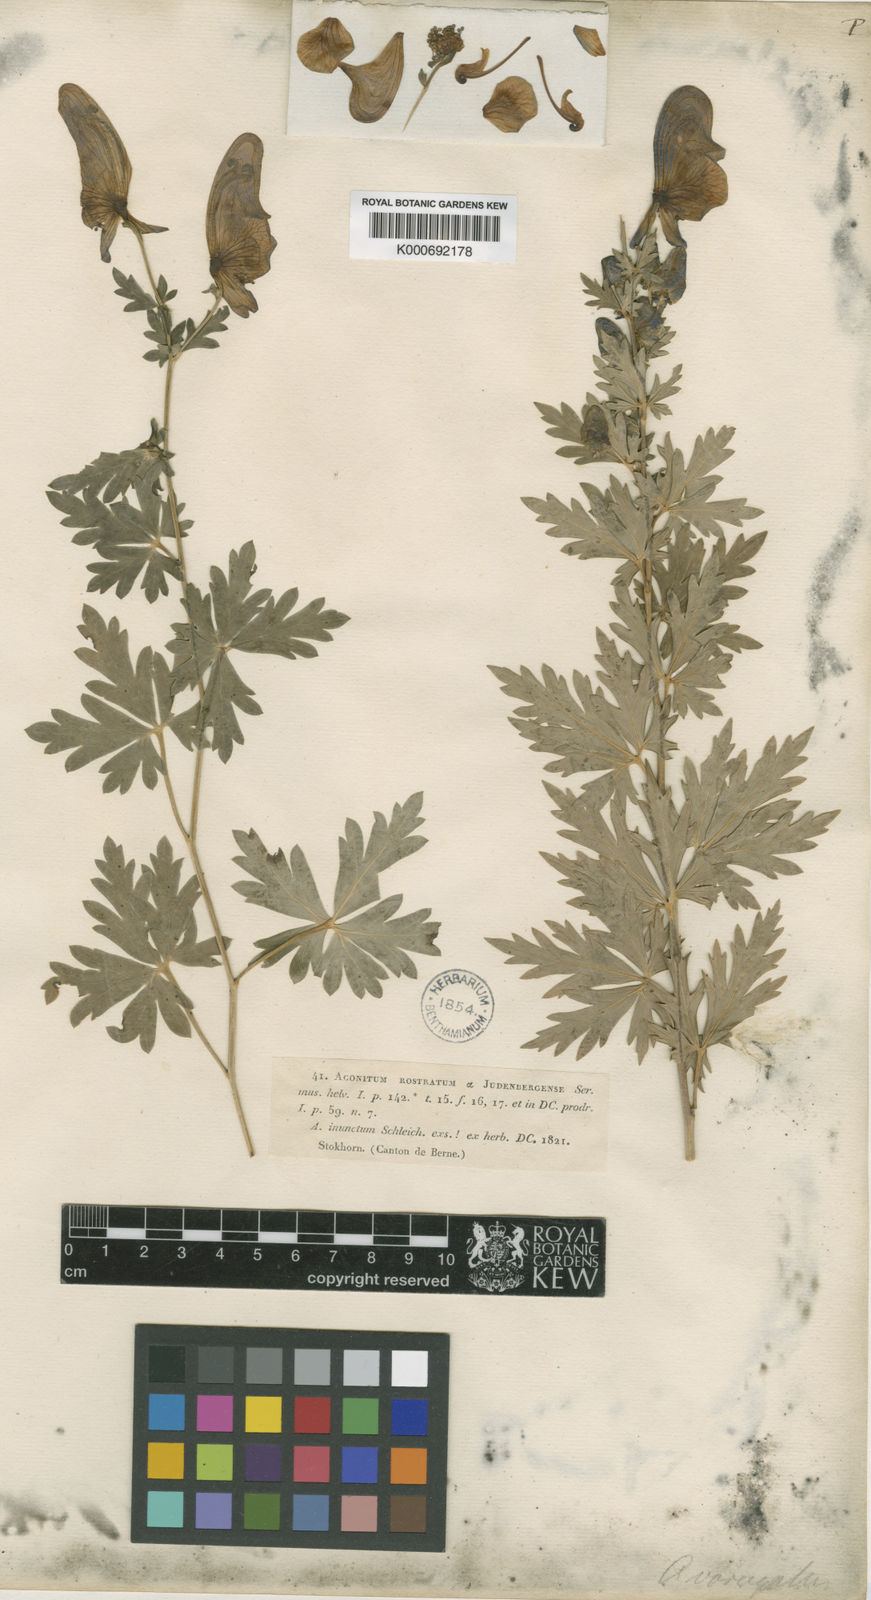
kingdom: Plantae
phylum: Tracheophyta
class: Magnoliopsida
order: Ranunculales
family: Ranunculaceae
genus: Aconitum
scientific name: Aconitum
